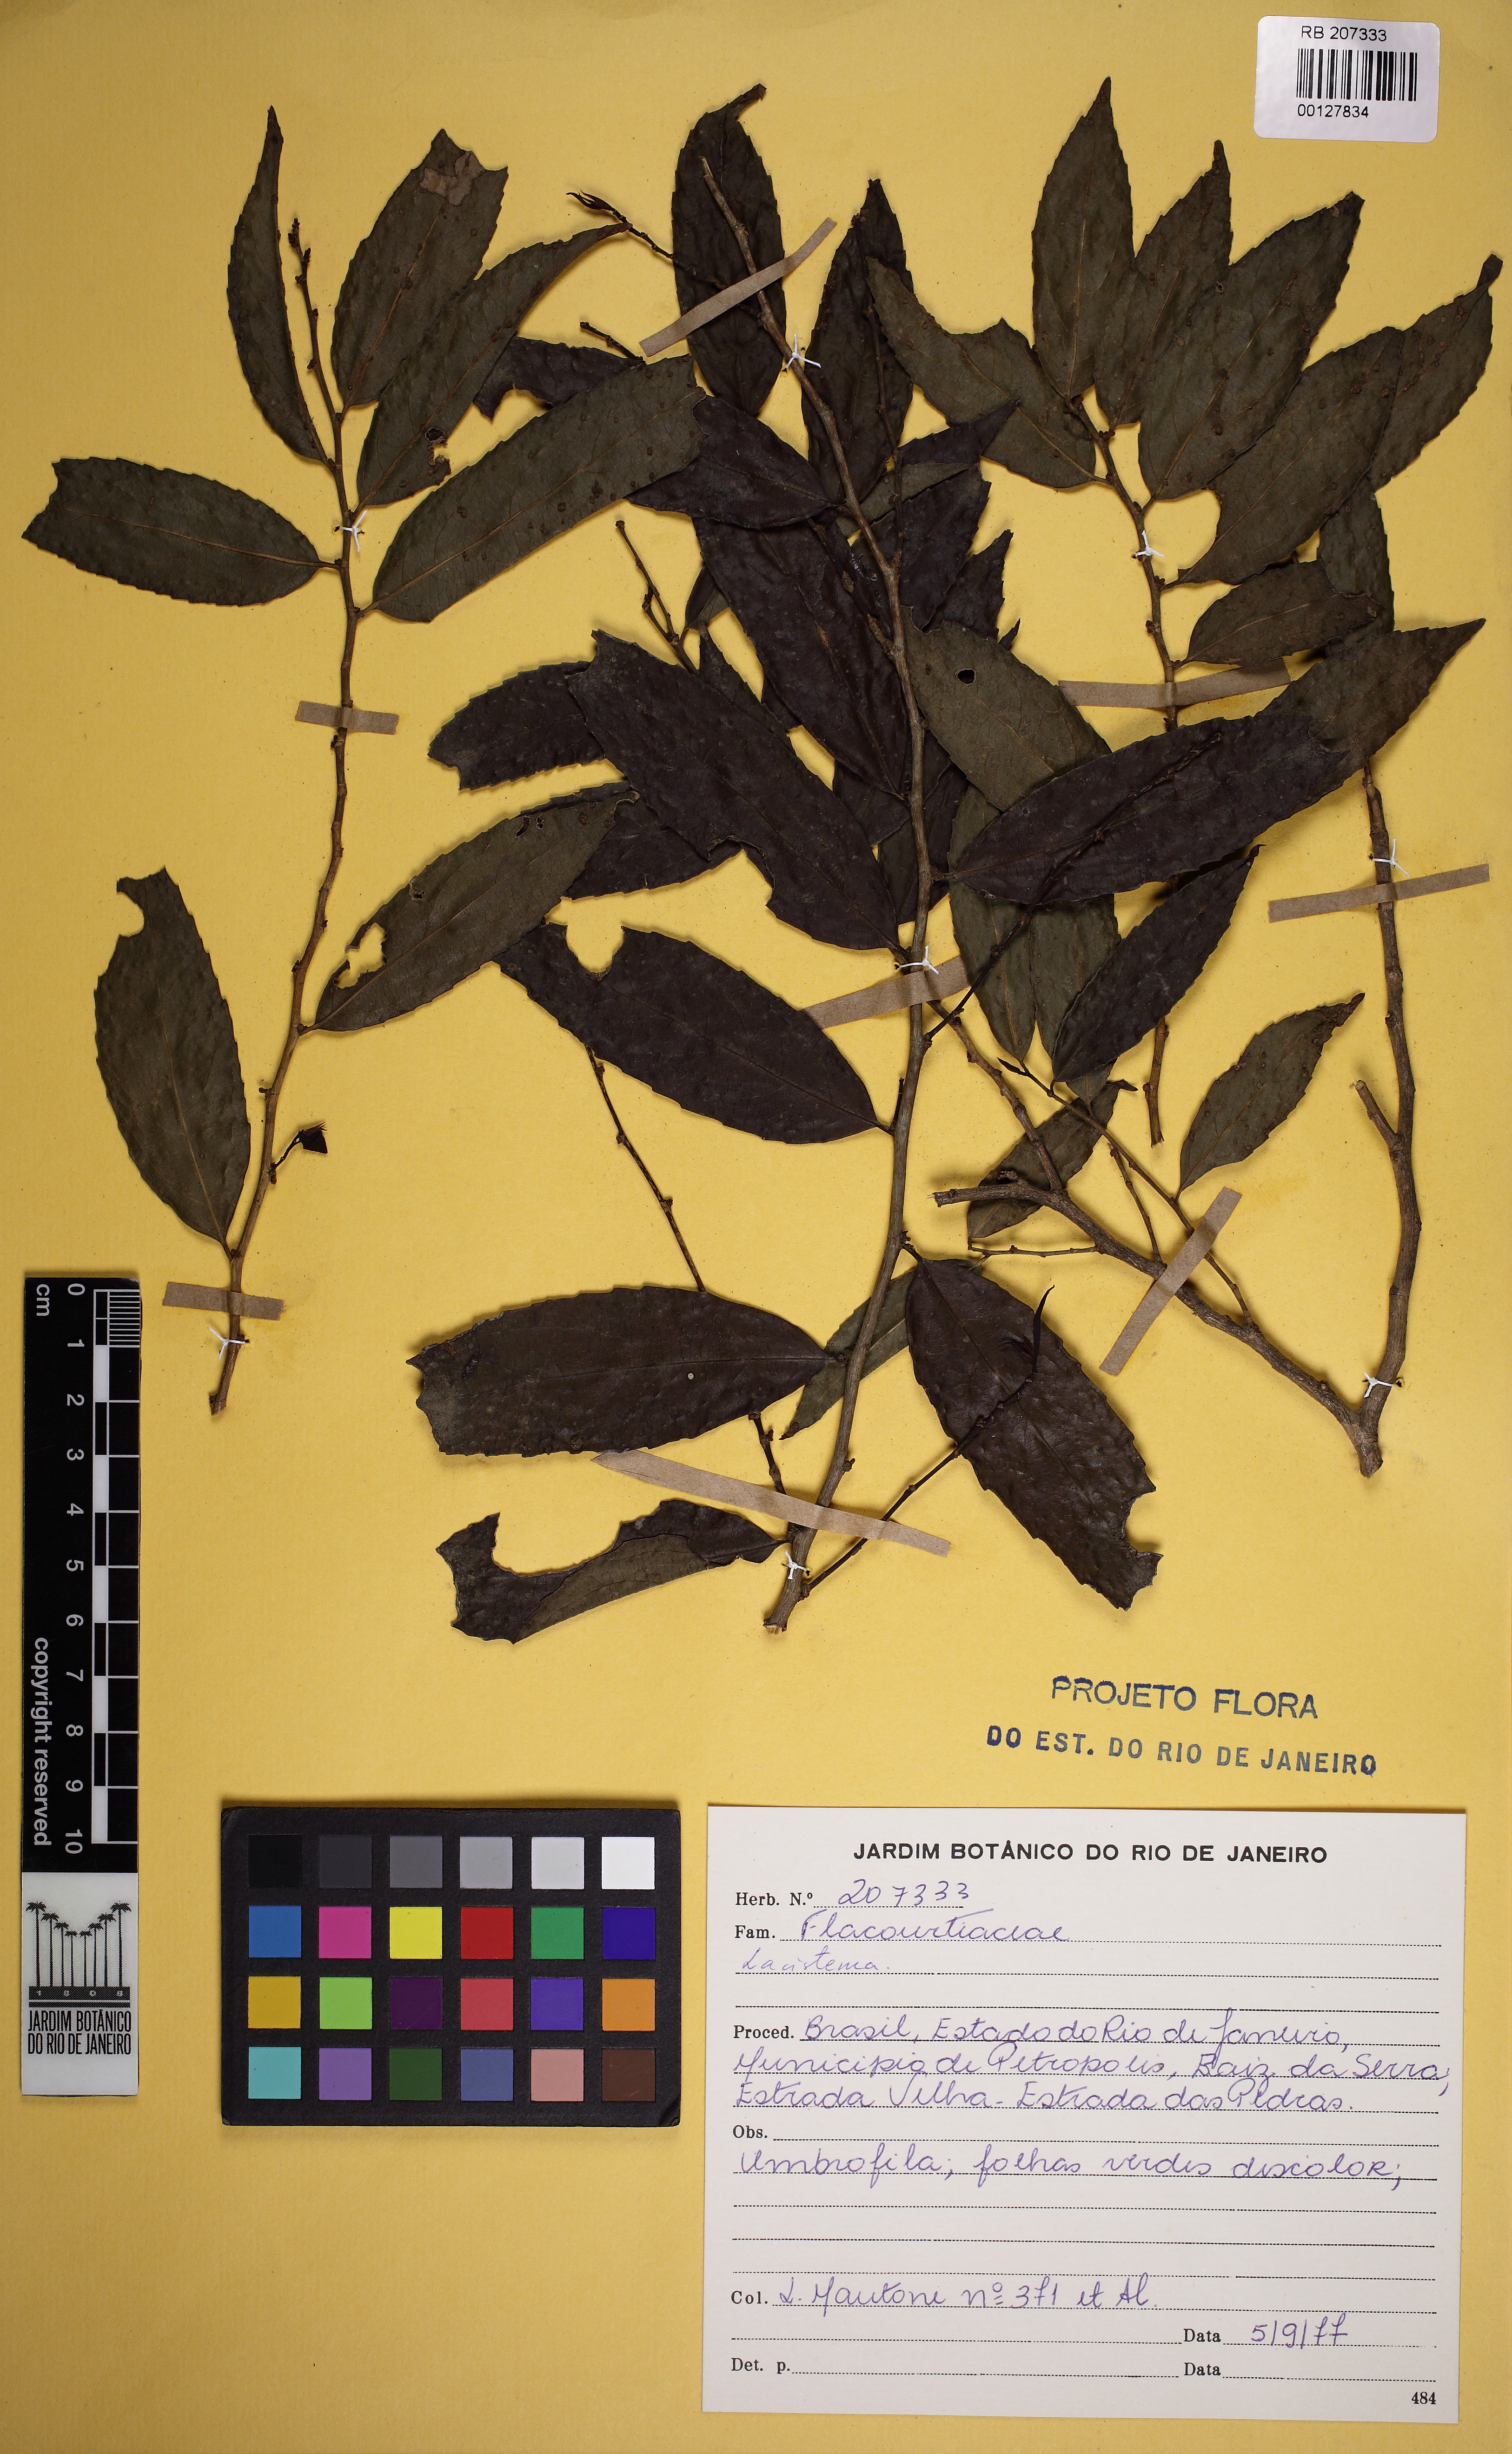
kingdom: Plantae
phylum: Tracheophyta
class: Magnoliopsida
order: Malpighiales
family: Lacistemataceae
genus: Lacistema
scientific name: Lacistema
